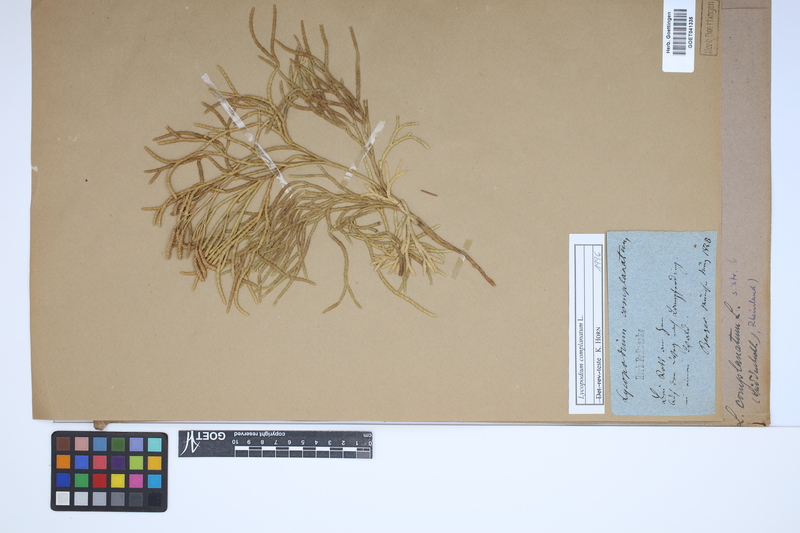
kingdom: Plantae
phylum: Tracheophyta
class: Lycopodiopsida
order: Lycopodiales
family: Lycopodiaceae
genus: Diphasiastrum
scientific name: Diphasiastrum complanatum
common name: Northern running-pine
